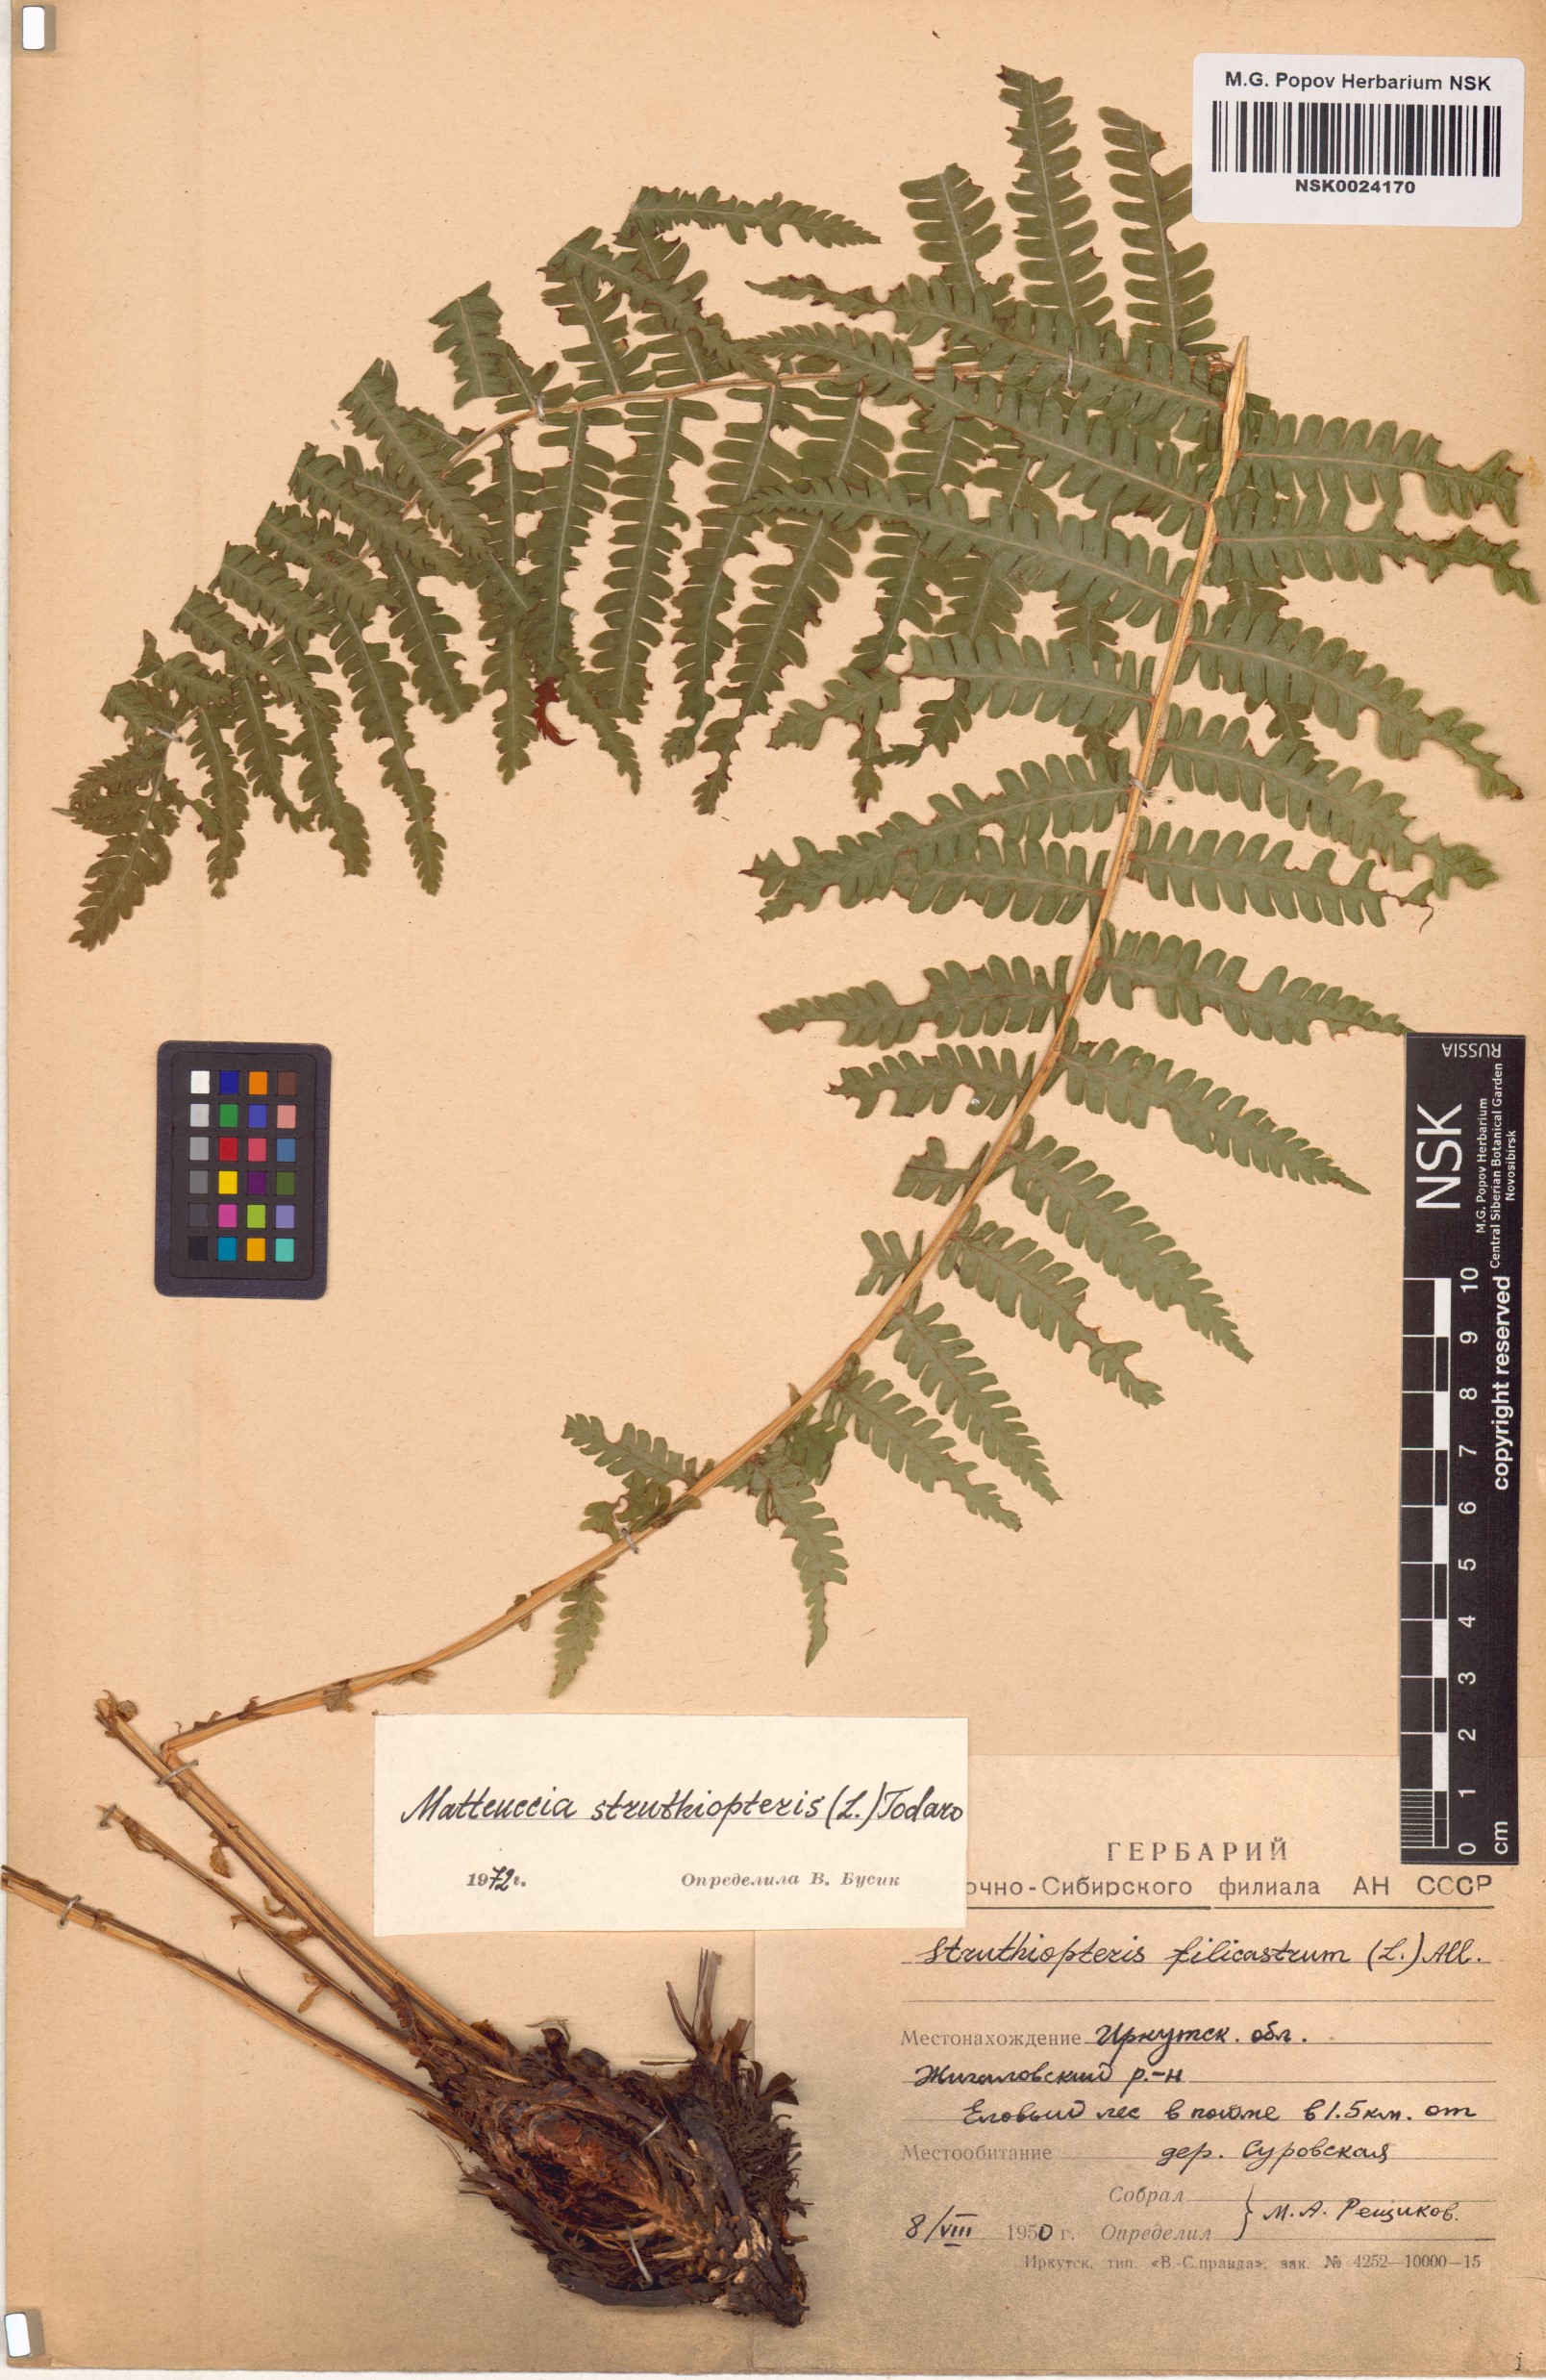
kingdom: Plantae
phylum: Tracheophyta
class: Polypodiopsida
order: Polypodiales
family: Onocleaceae
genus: Matteuccia
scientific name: Matteuccia struthiopteris
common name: Ostrich fern
